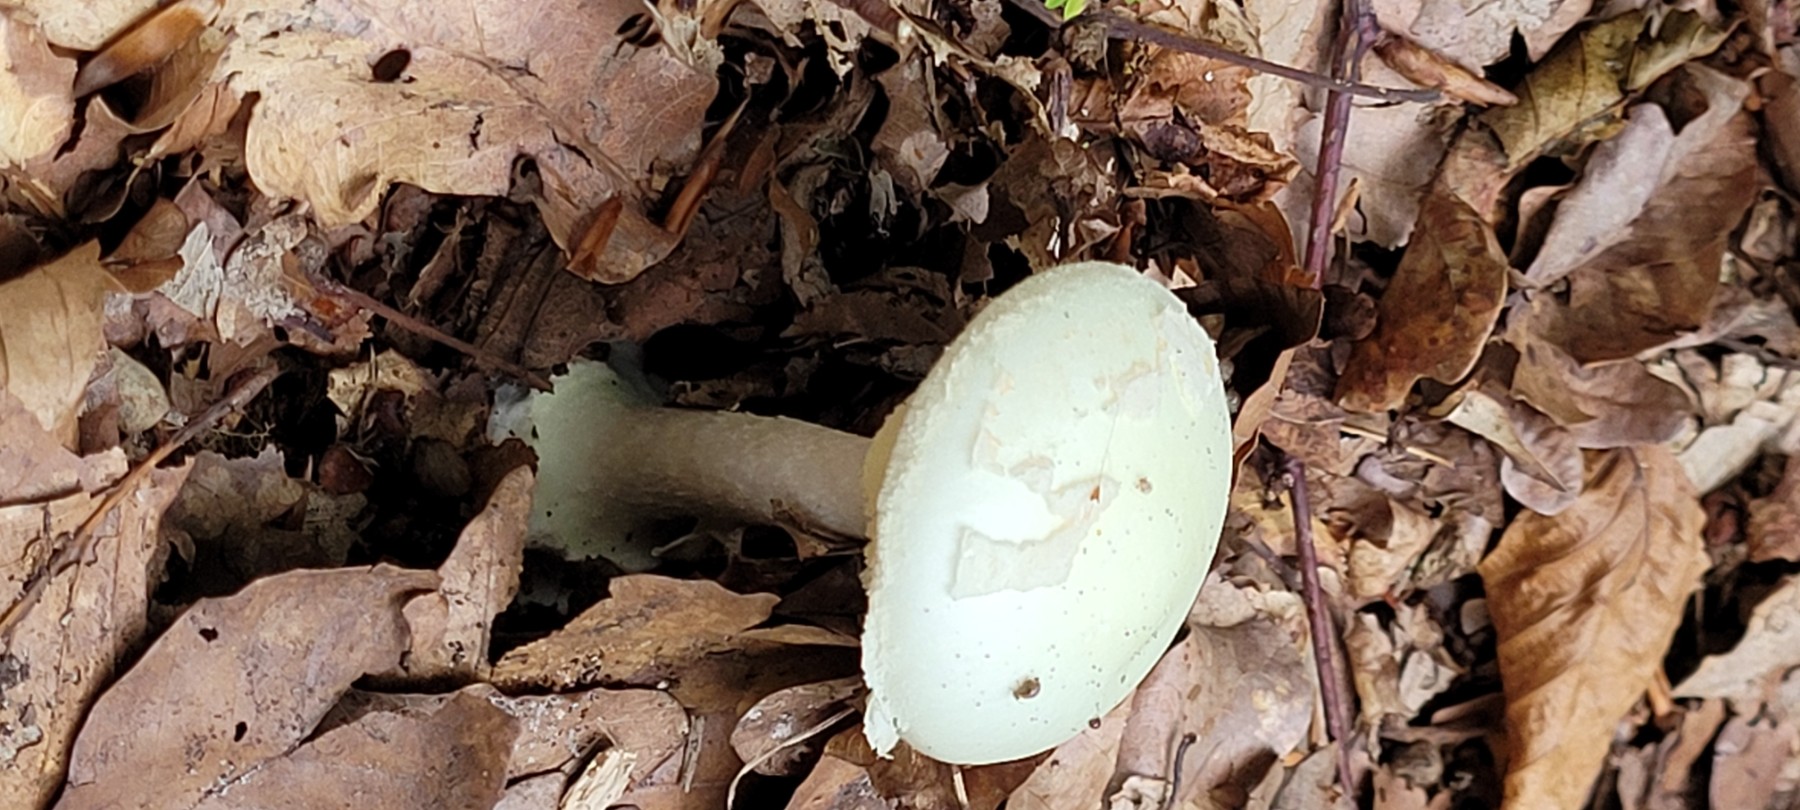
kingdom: Fungi
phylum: Basidiomycota
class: Agaricomycetes
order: Agaricales
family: Amanitaceae
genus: Amanita
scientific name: Amanita citrina
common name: kugleknoldet fluesvamp
